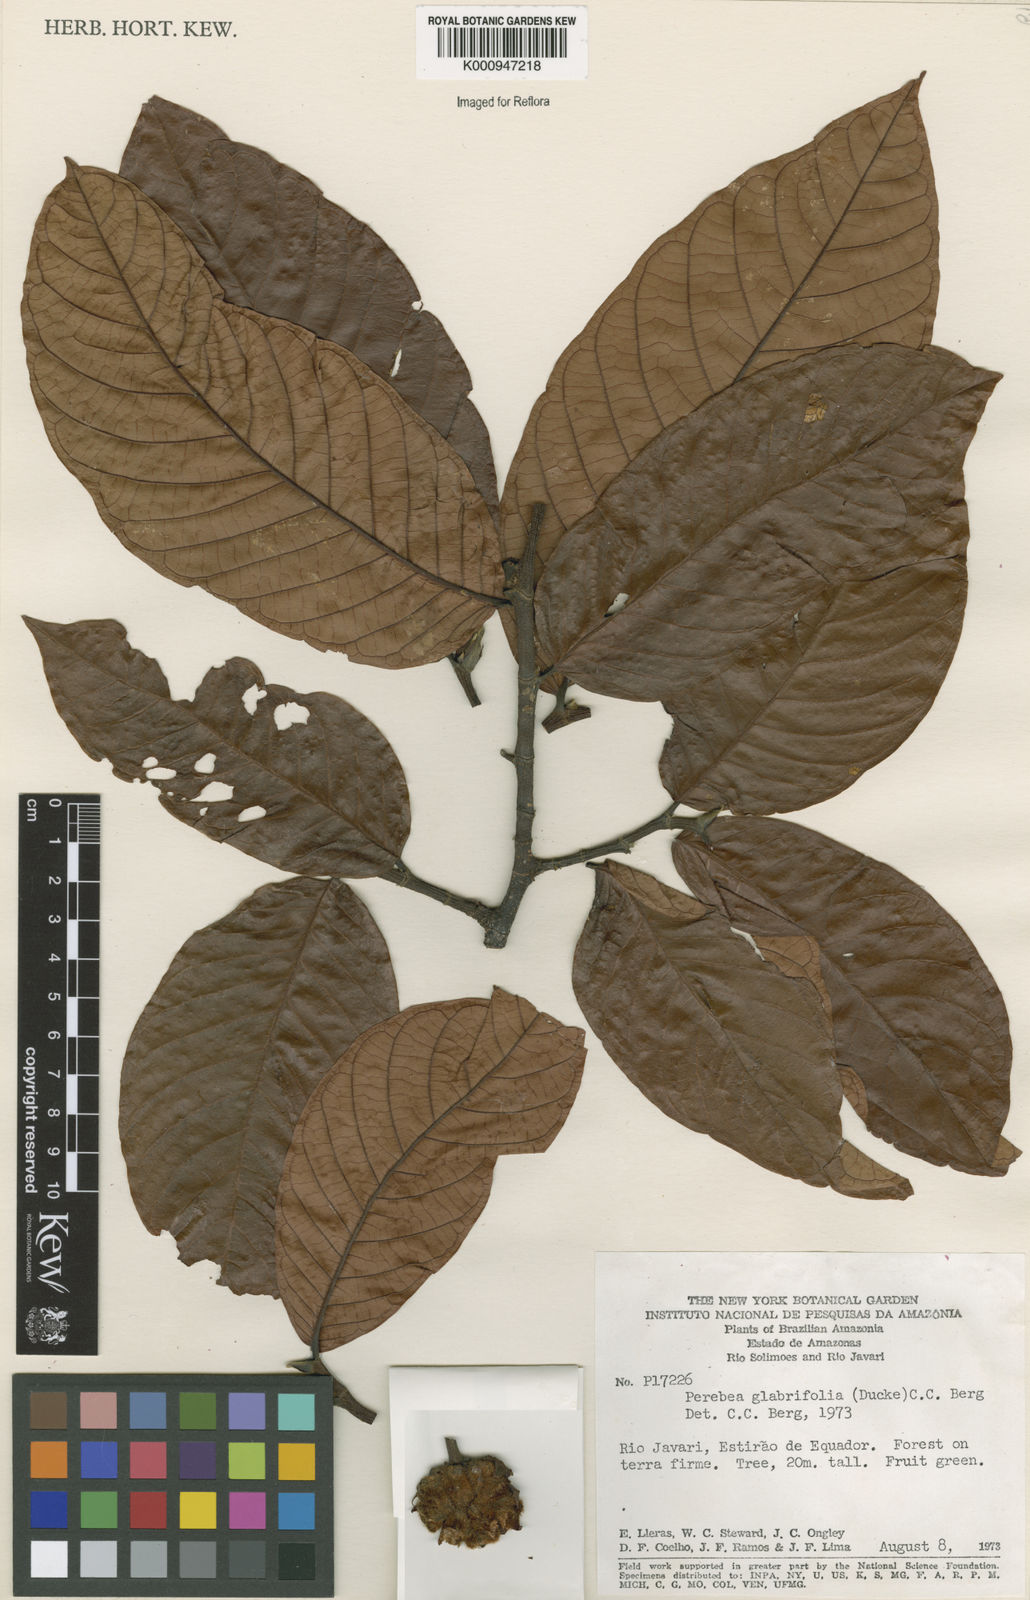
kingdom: Plantae
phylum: Tracheophyta
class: Magnoliopsida
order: Rosales
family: Moraceae
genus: Perebea
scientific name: Perebea rubra
